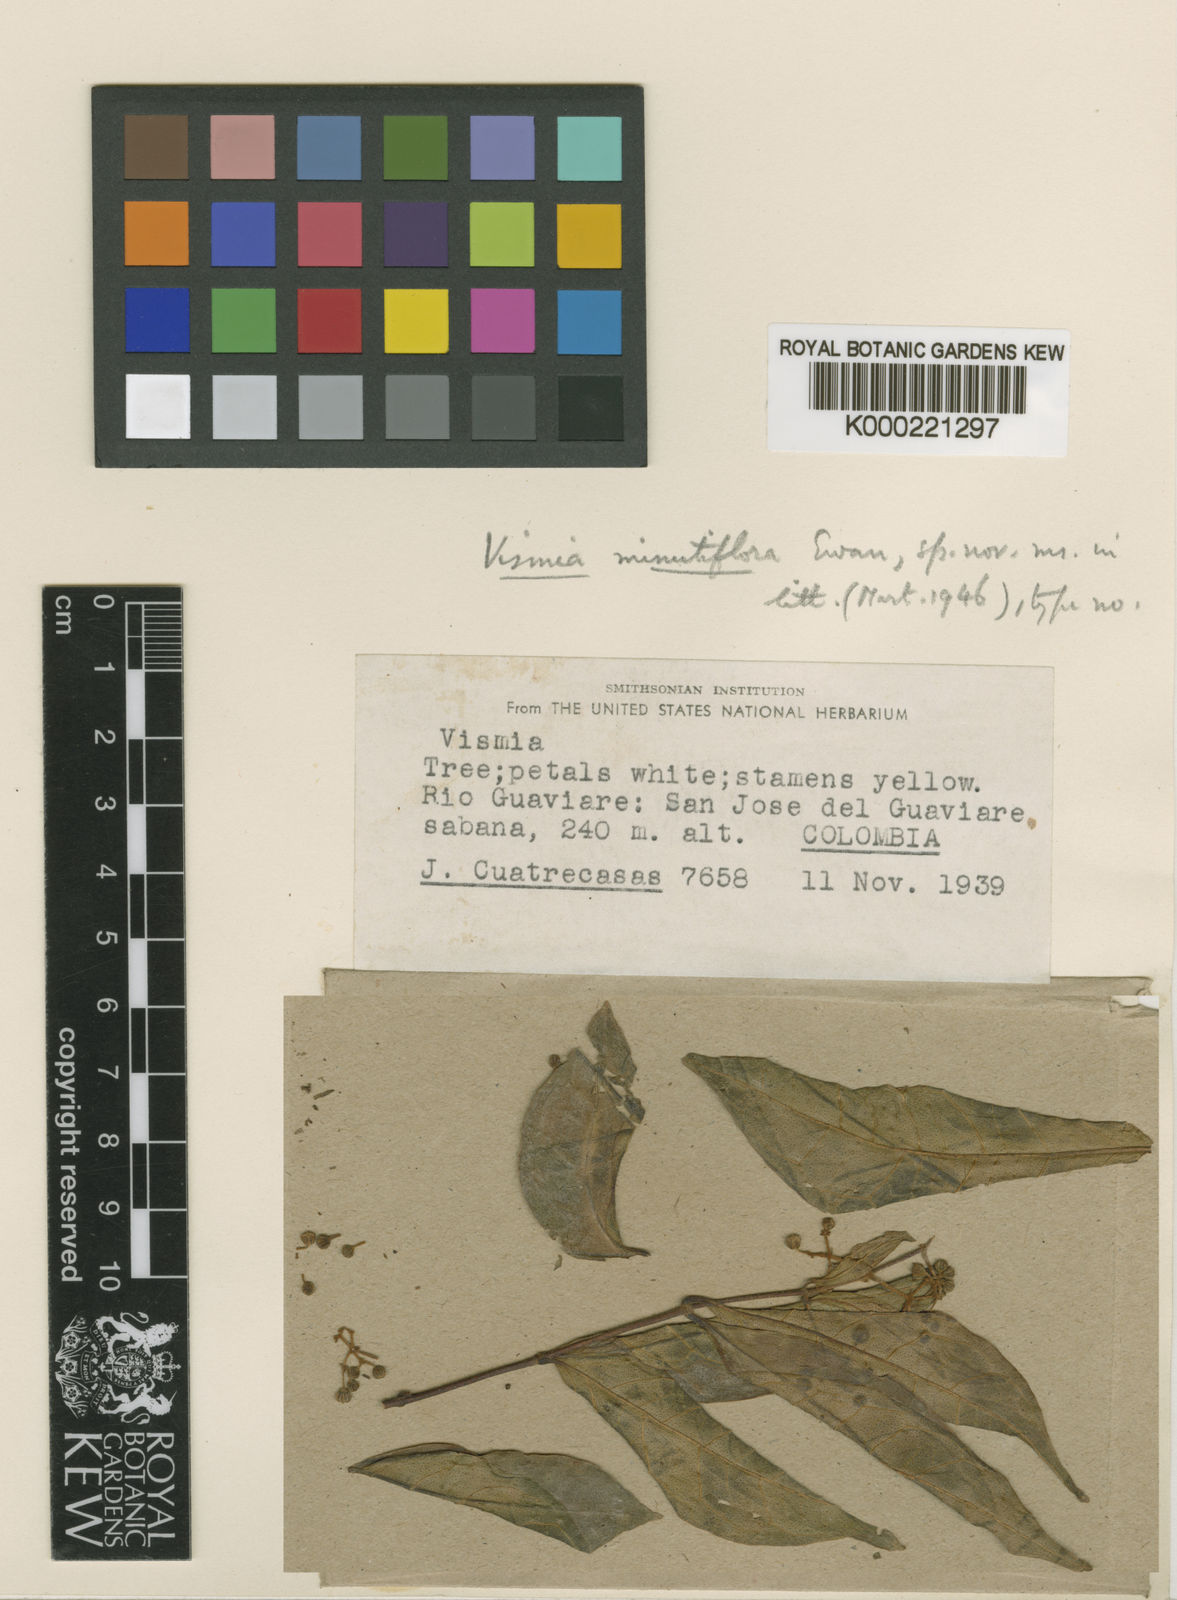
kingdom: Plantae
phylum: Tracheophyta
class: Magnoliopsida
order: Malpighiales
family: Hypericaceae
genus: Vismia
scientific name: Vismia minutiflora
